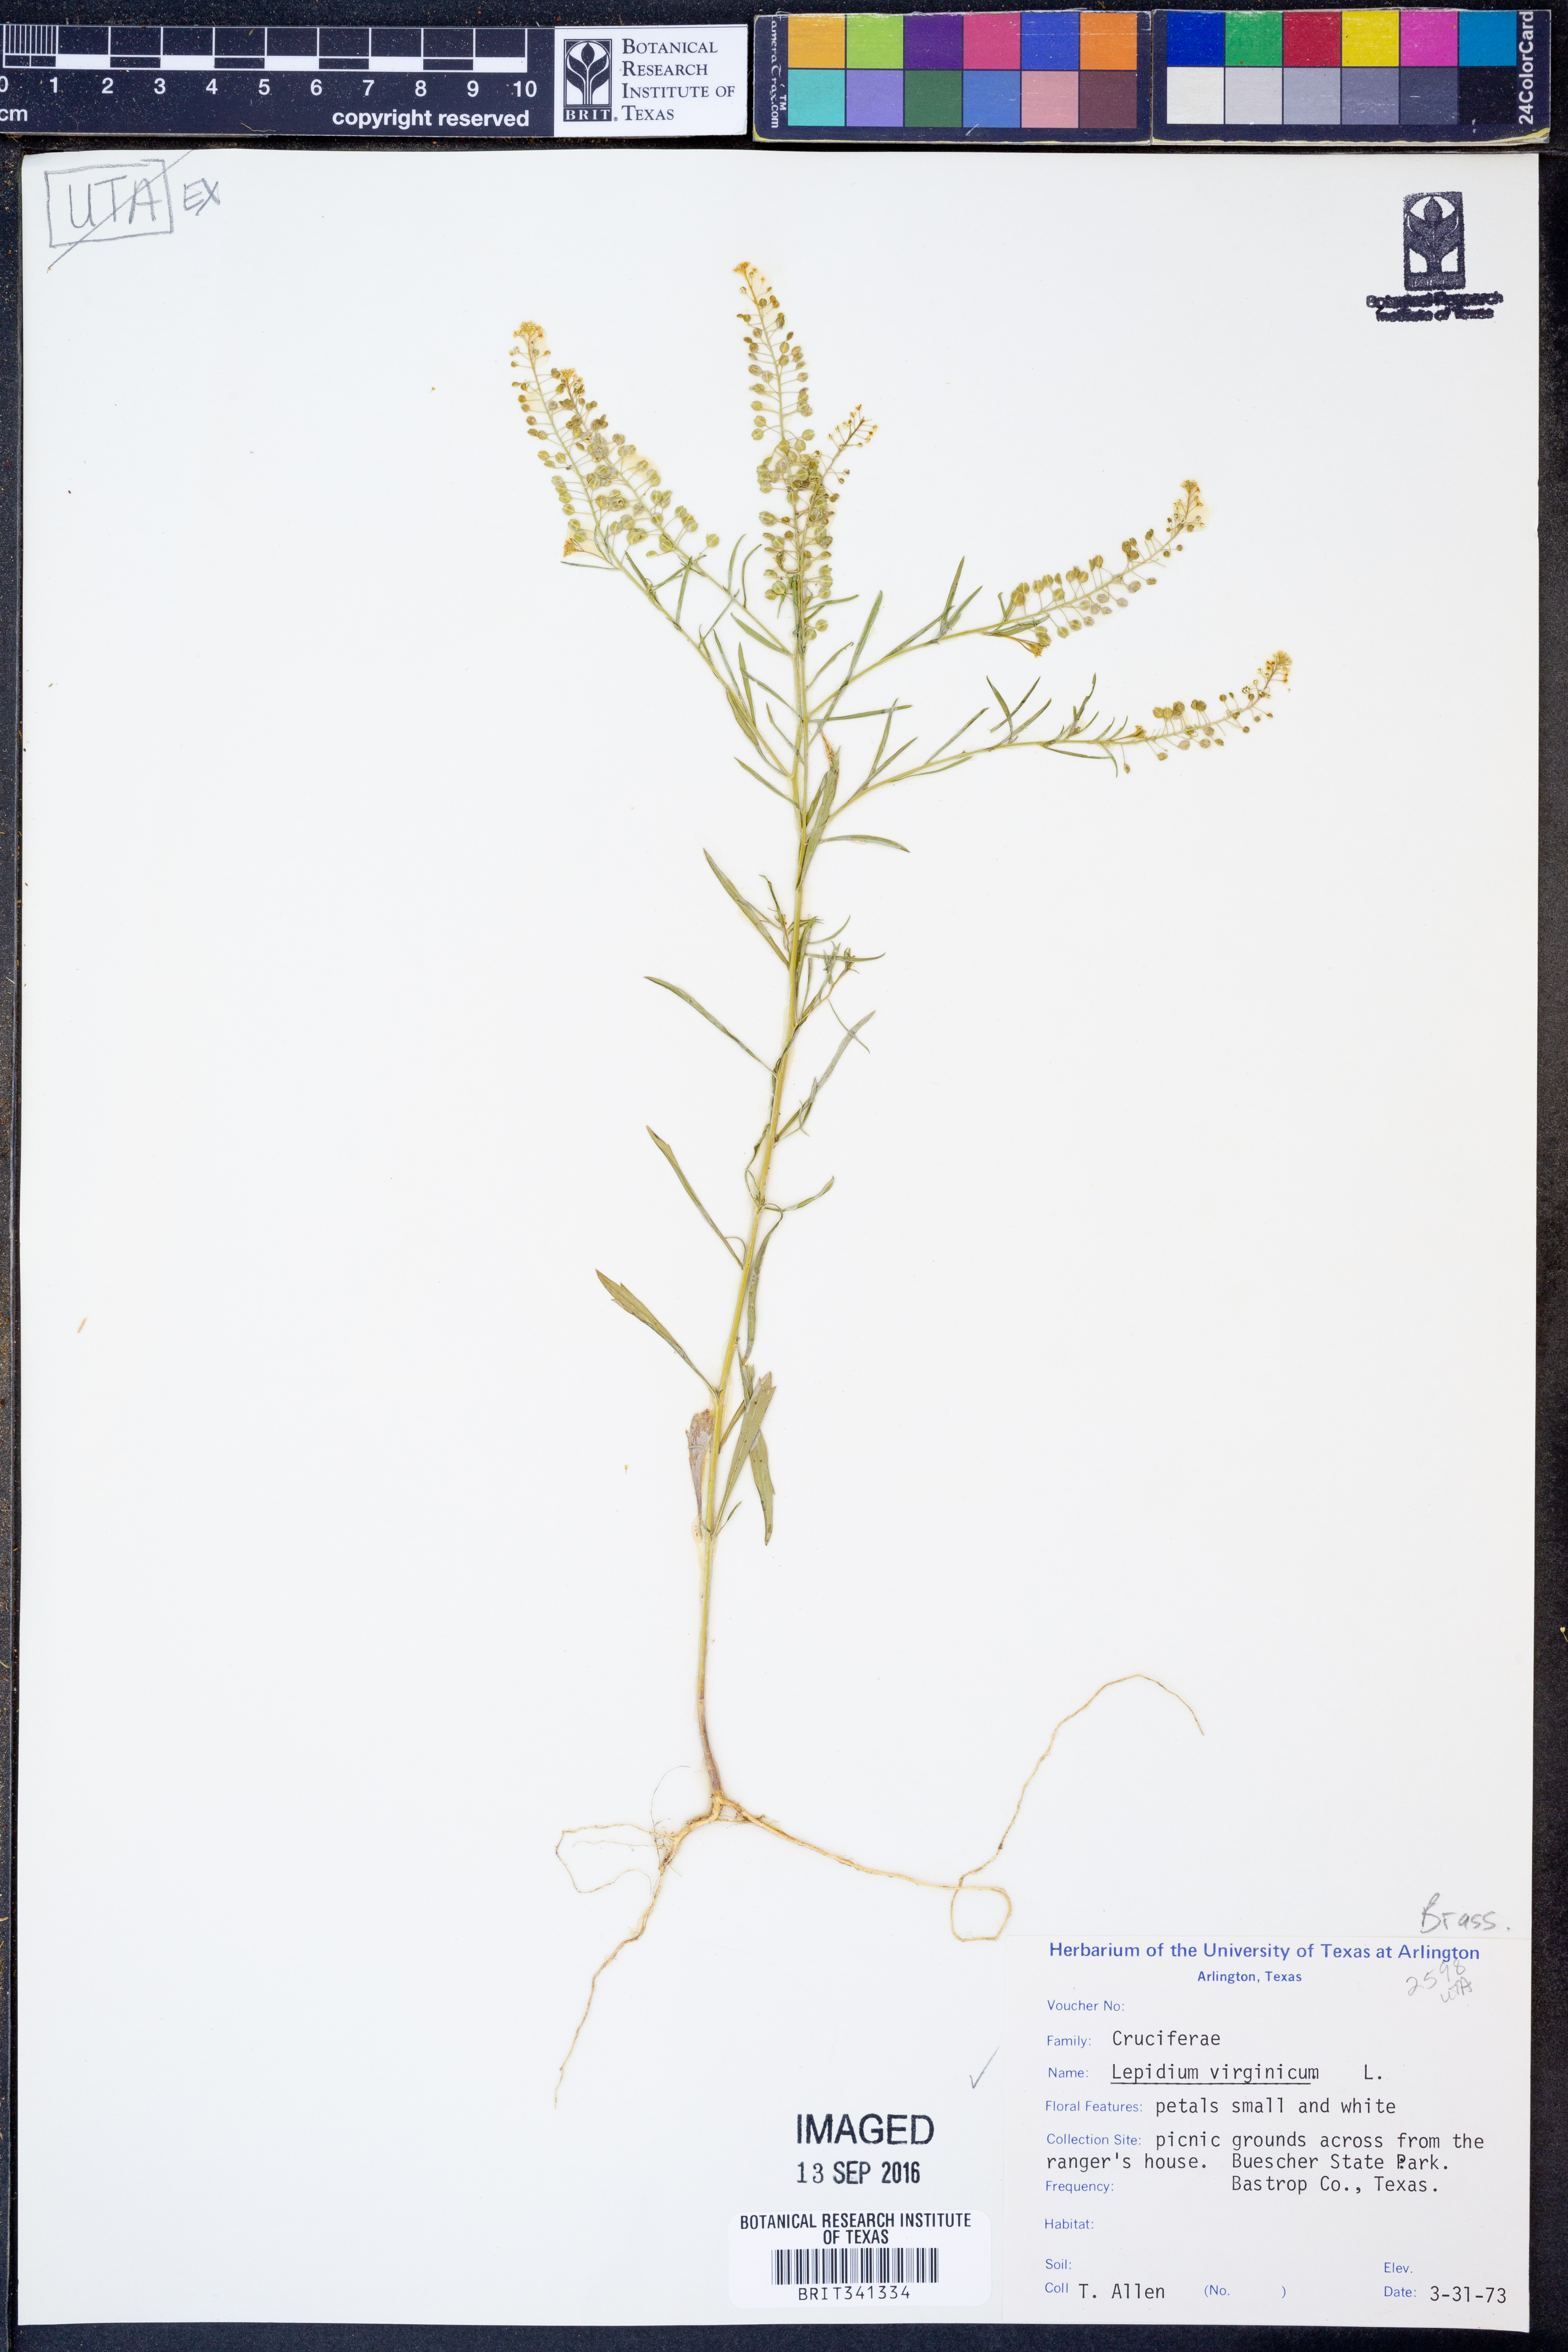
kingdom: Plantae
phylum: Tracheophyta
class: Magnoliopsida
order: Brassicales
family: Brassicaceae
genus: Lepidium
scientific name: Lepidium virginicum
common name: Least pepperwort
